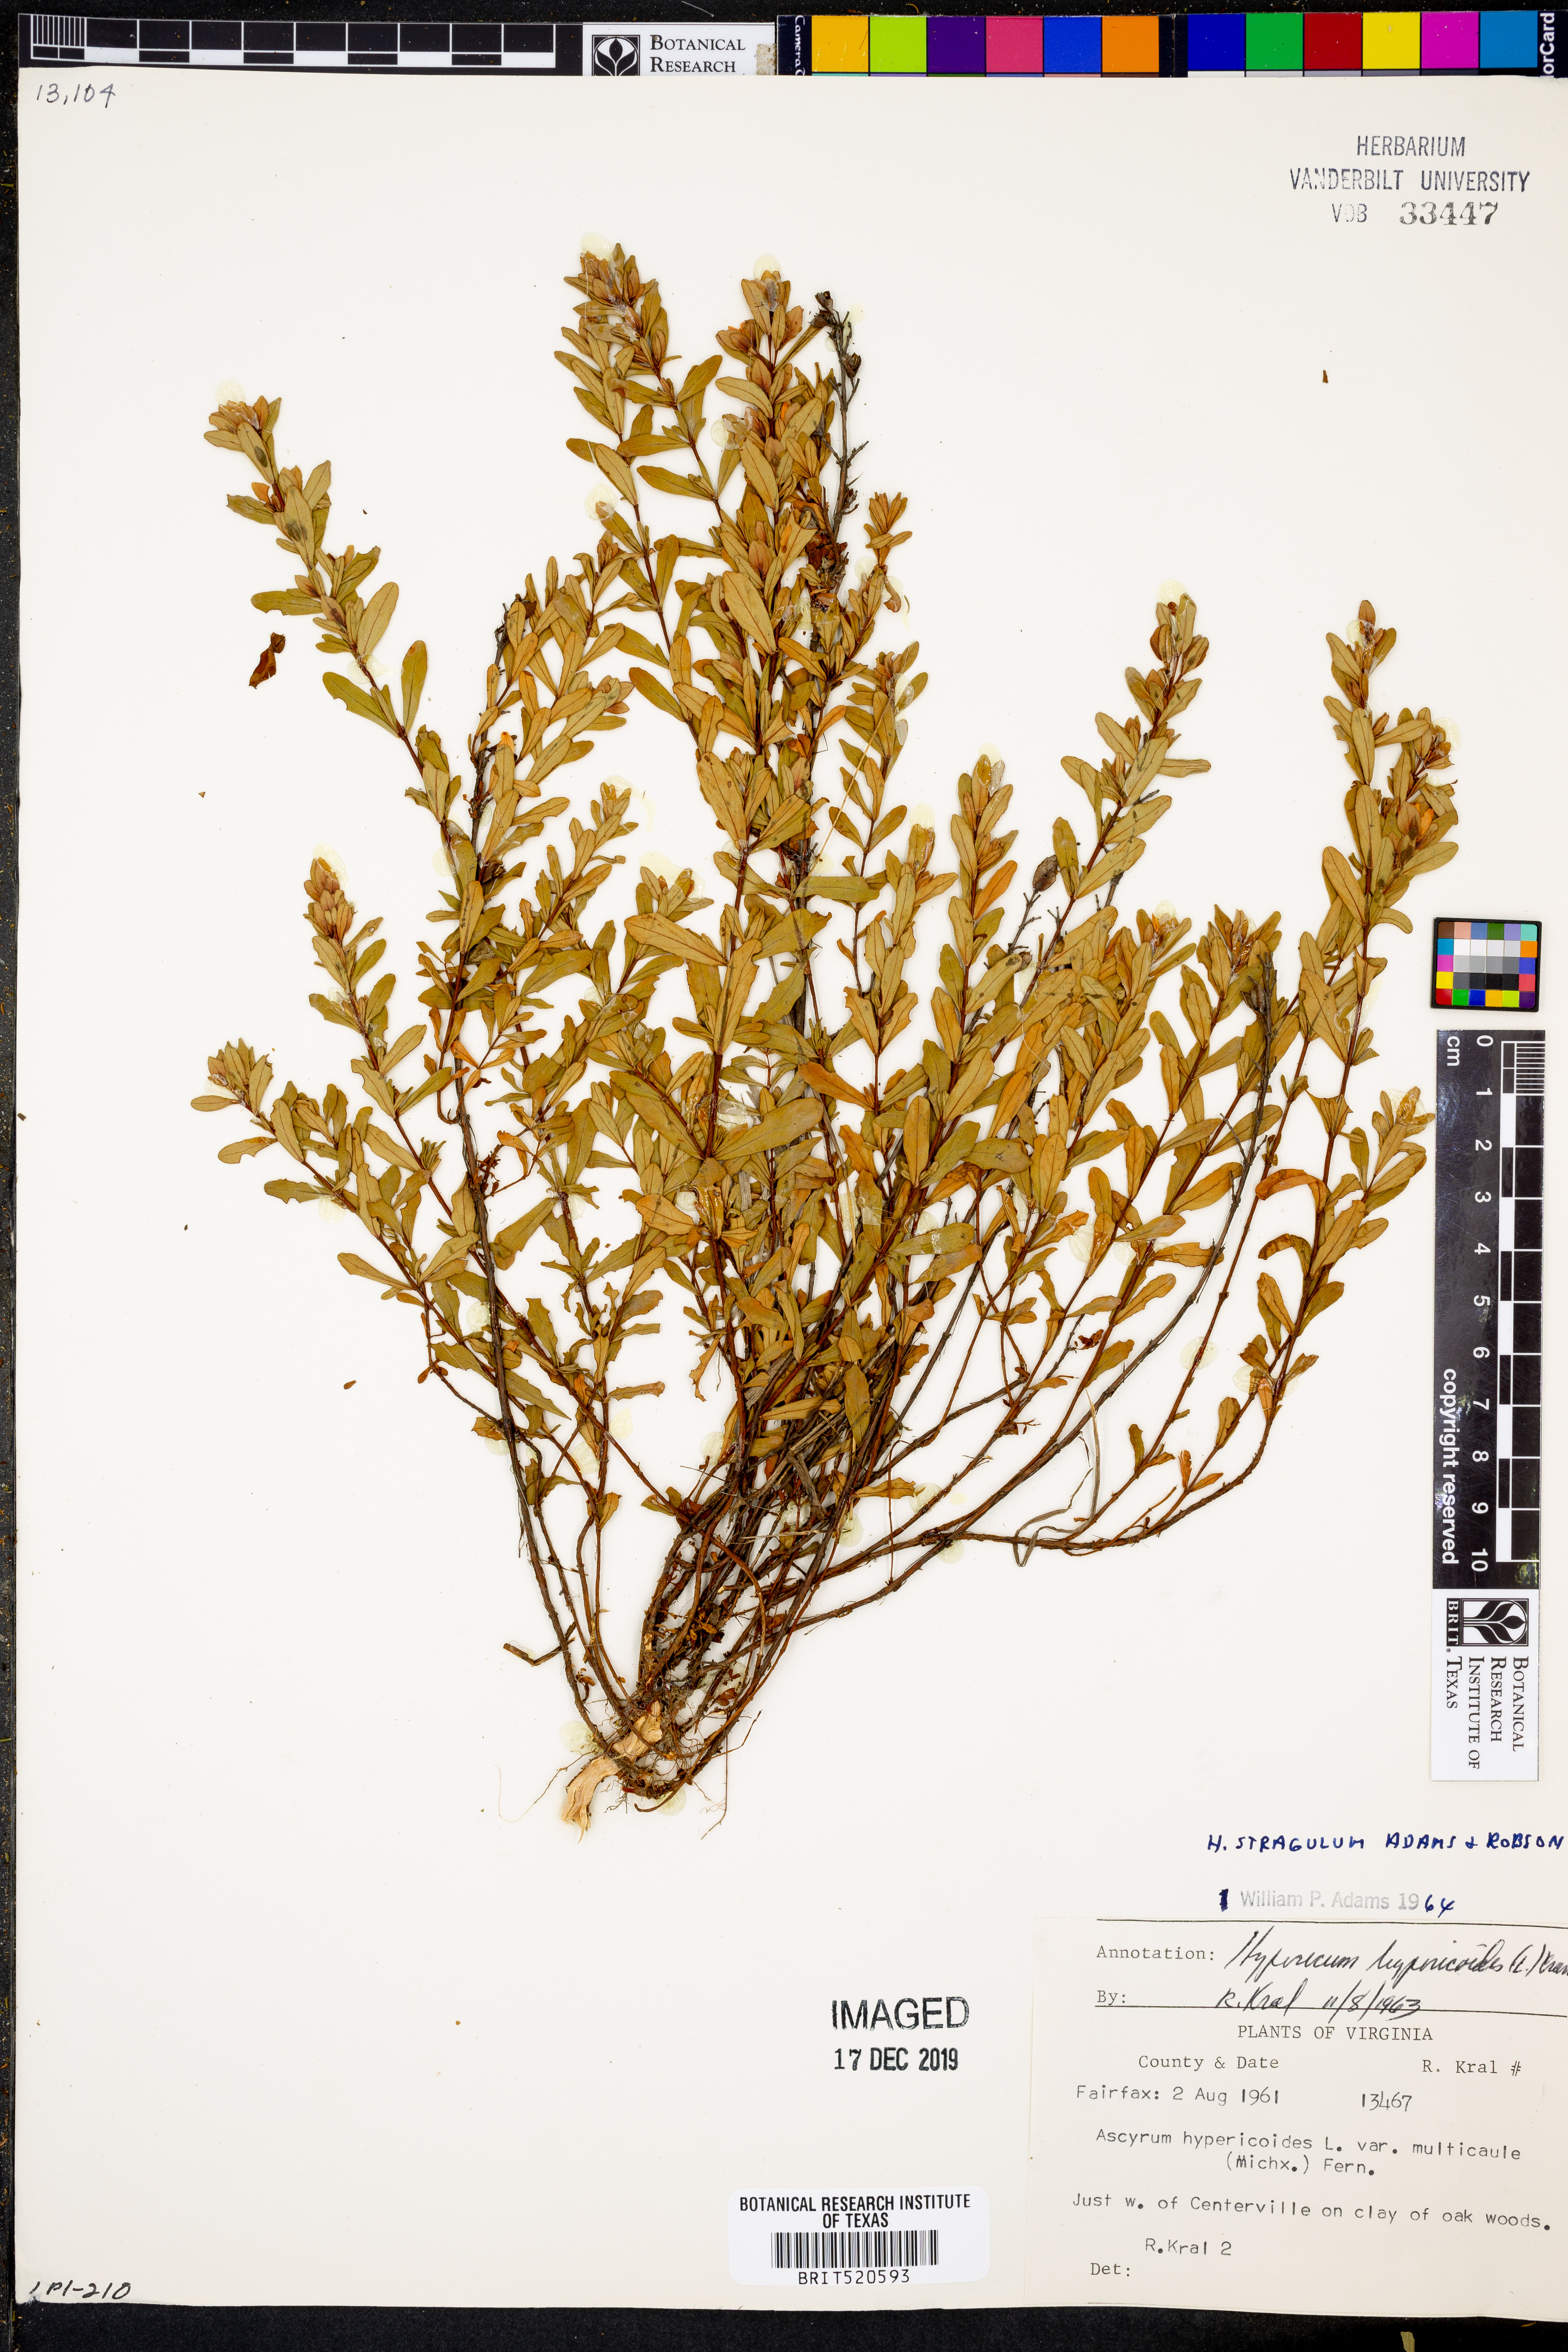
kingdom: Plantae
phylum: Tracheophyta
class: Magnoliopsida
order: Malpighiales
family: Hypericaceae
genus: Hypericum
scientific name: Hypericum hypericoides
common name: St. andrew's cross
